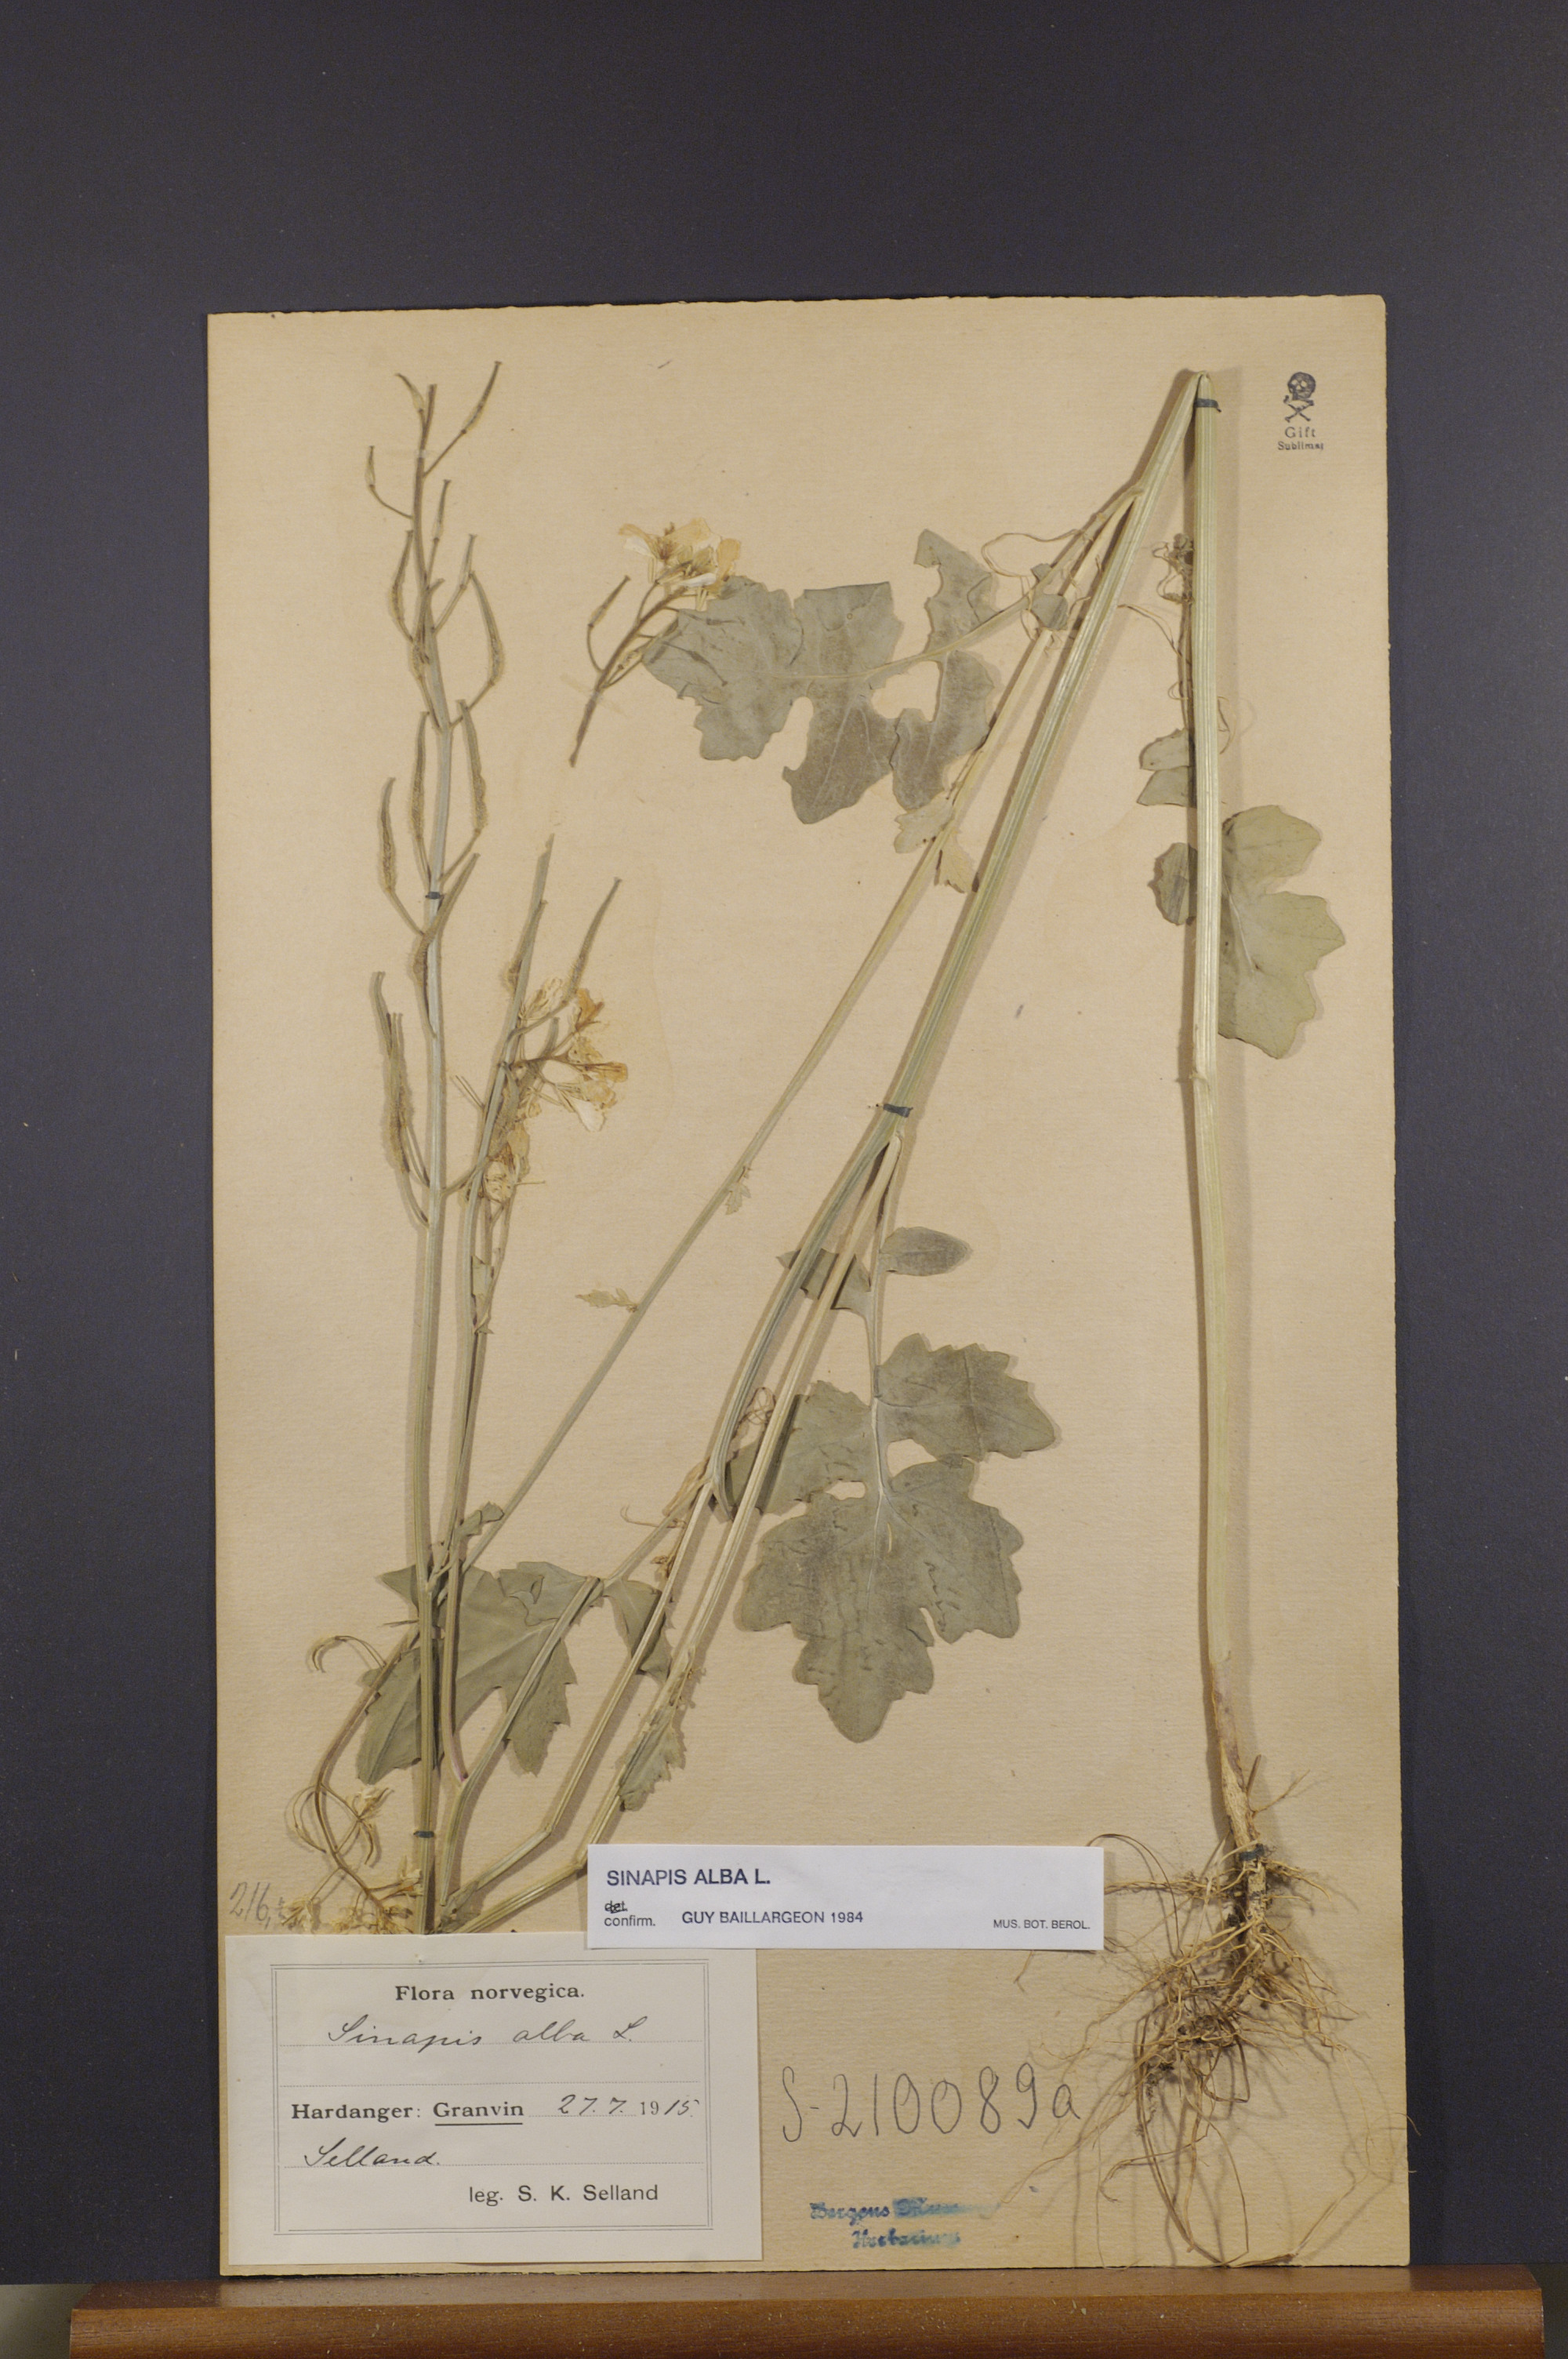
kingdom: Plantae
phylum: Tracheophyta
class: Magnoliopsida
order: Brassicales
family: Brassicaceae
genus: Sinapis
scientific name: Sinapis alba
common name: White mustard
